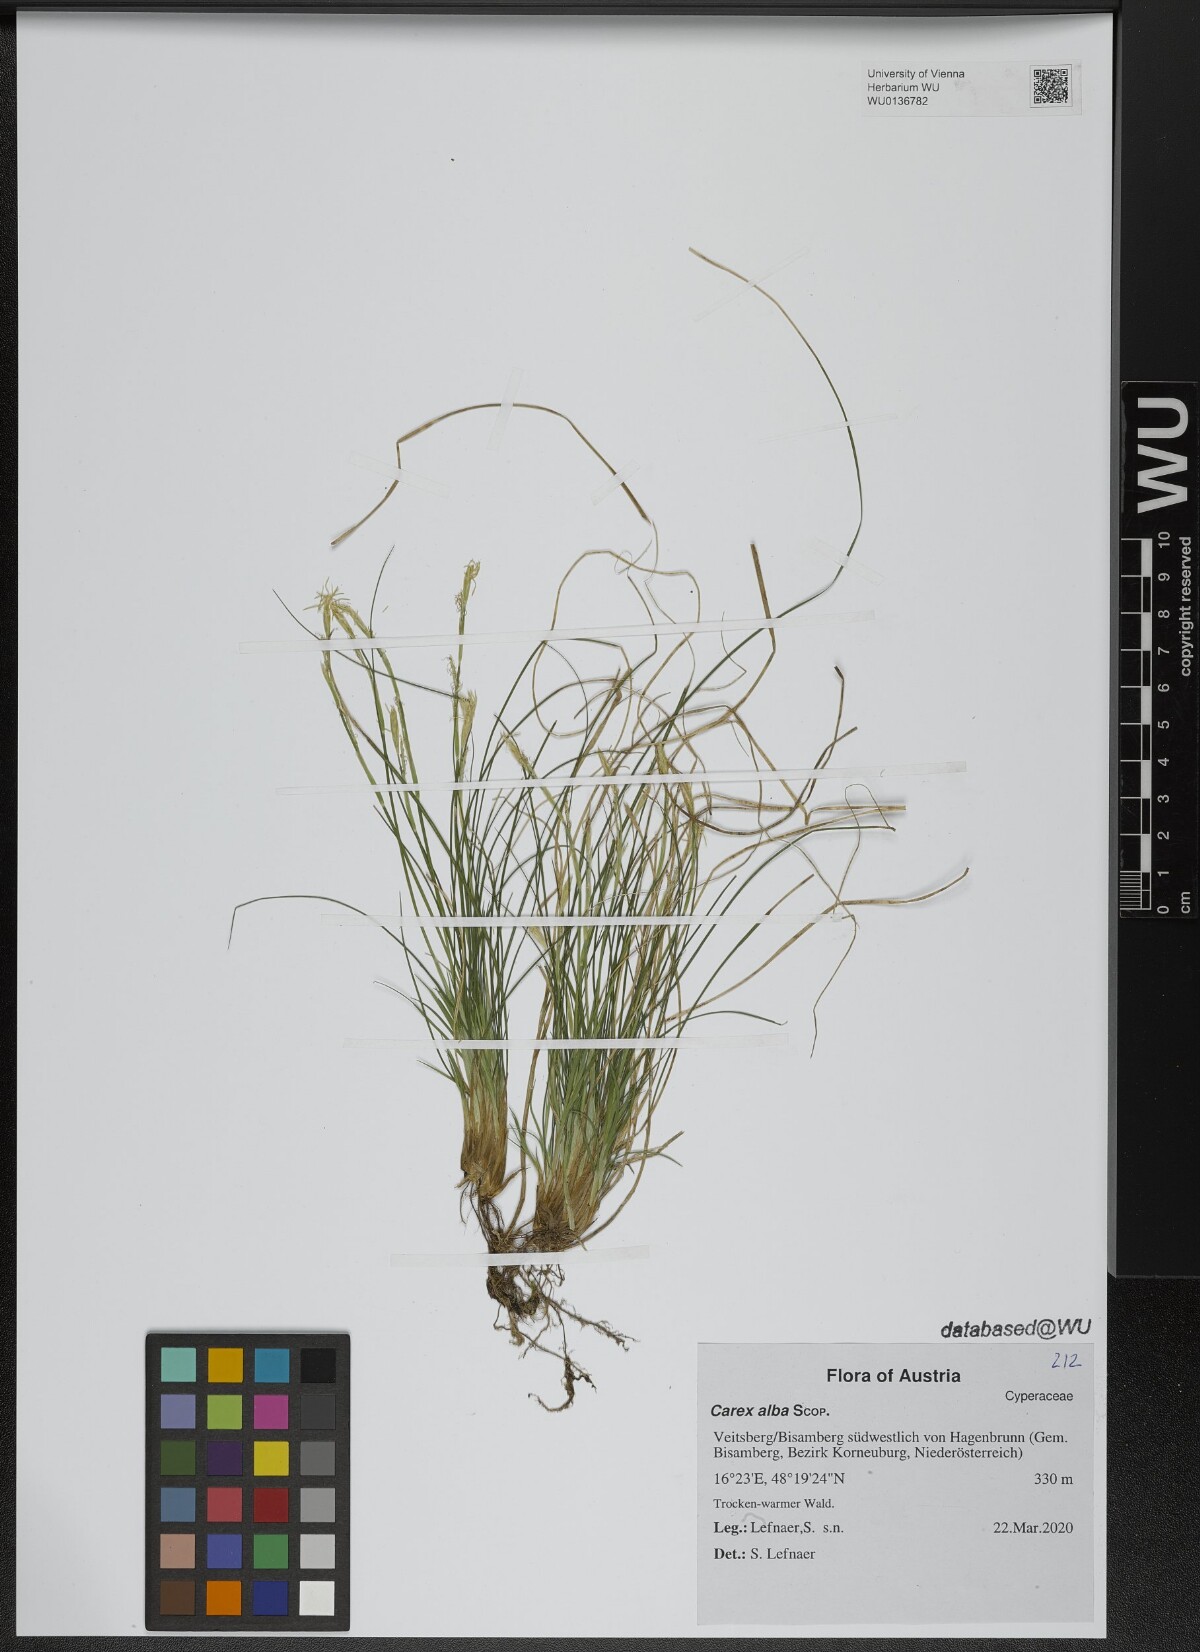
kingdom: Plantae
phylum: Tracheophyta
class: Liliopsida
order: Poales
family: Cyperaceae
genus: Carex
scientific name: Carex alba
